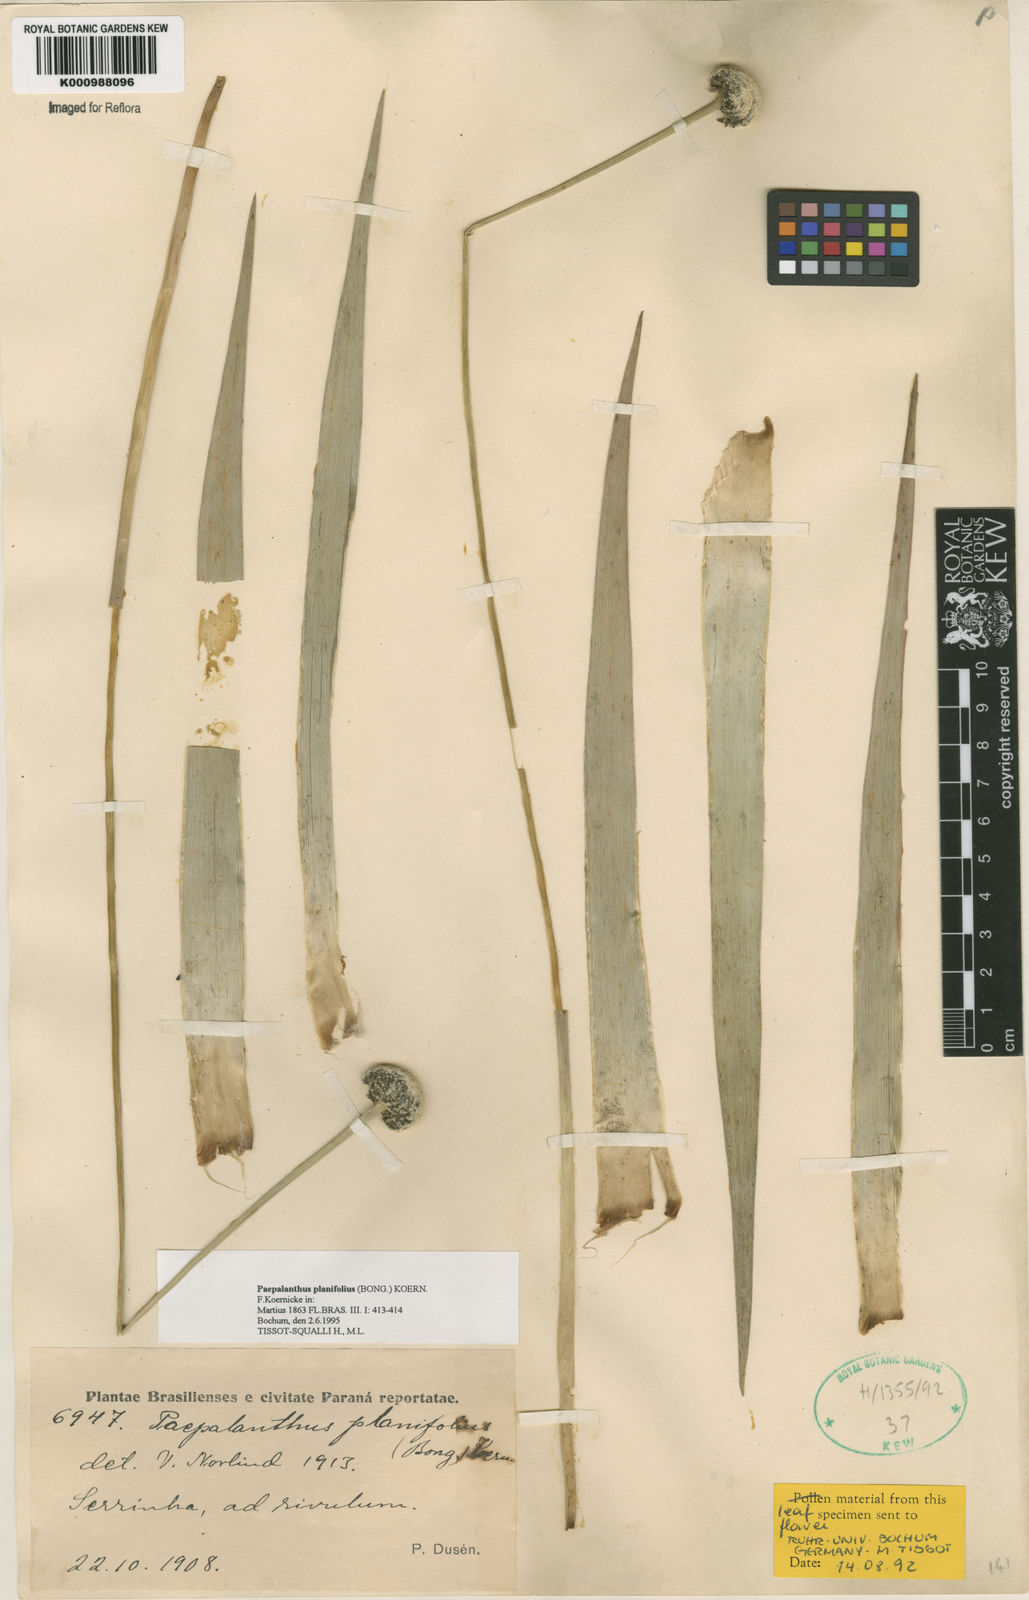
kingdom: Plantae
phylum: Tracheophyta
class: Liliopsida
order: Poales
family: Eriocaulaceae
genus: Paepalanthus
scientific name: Paepalanthus
